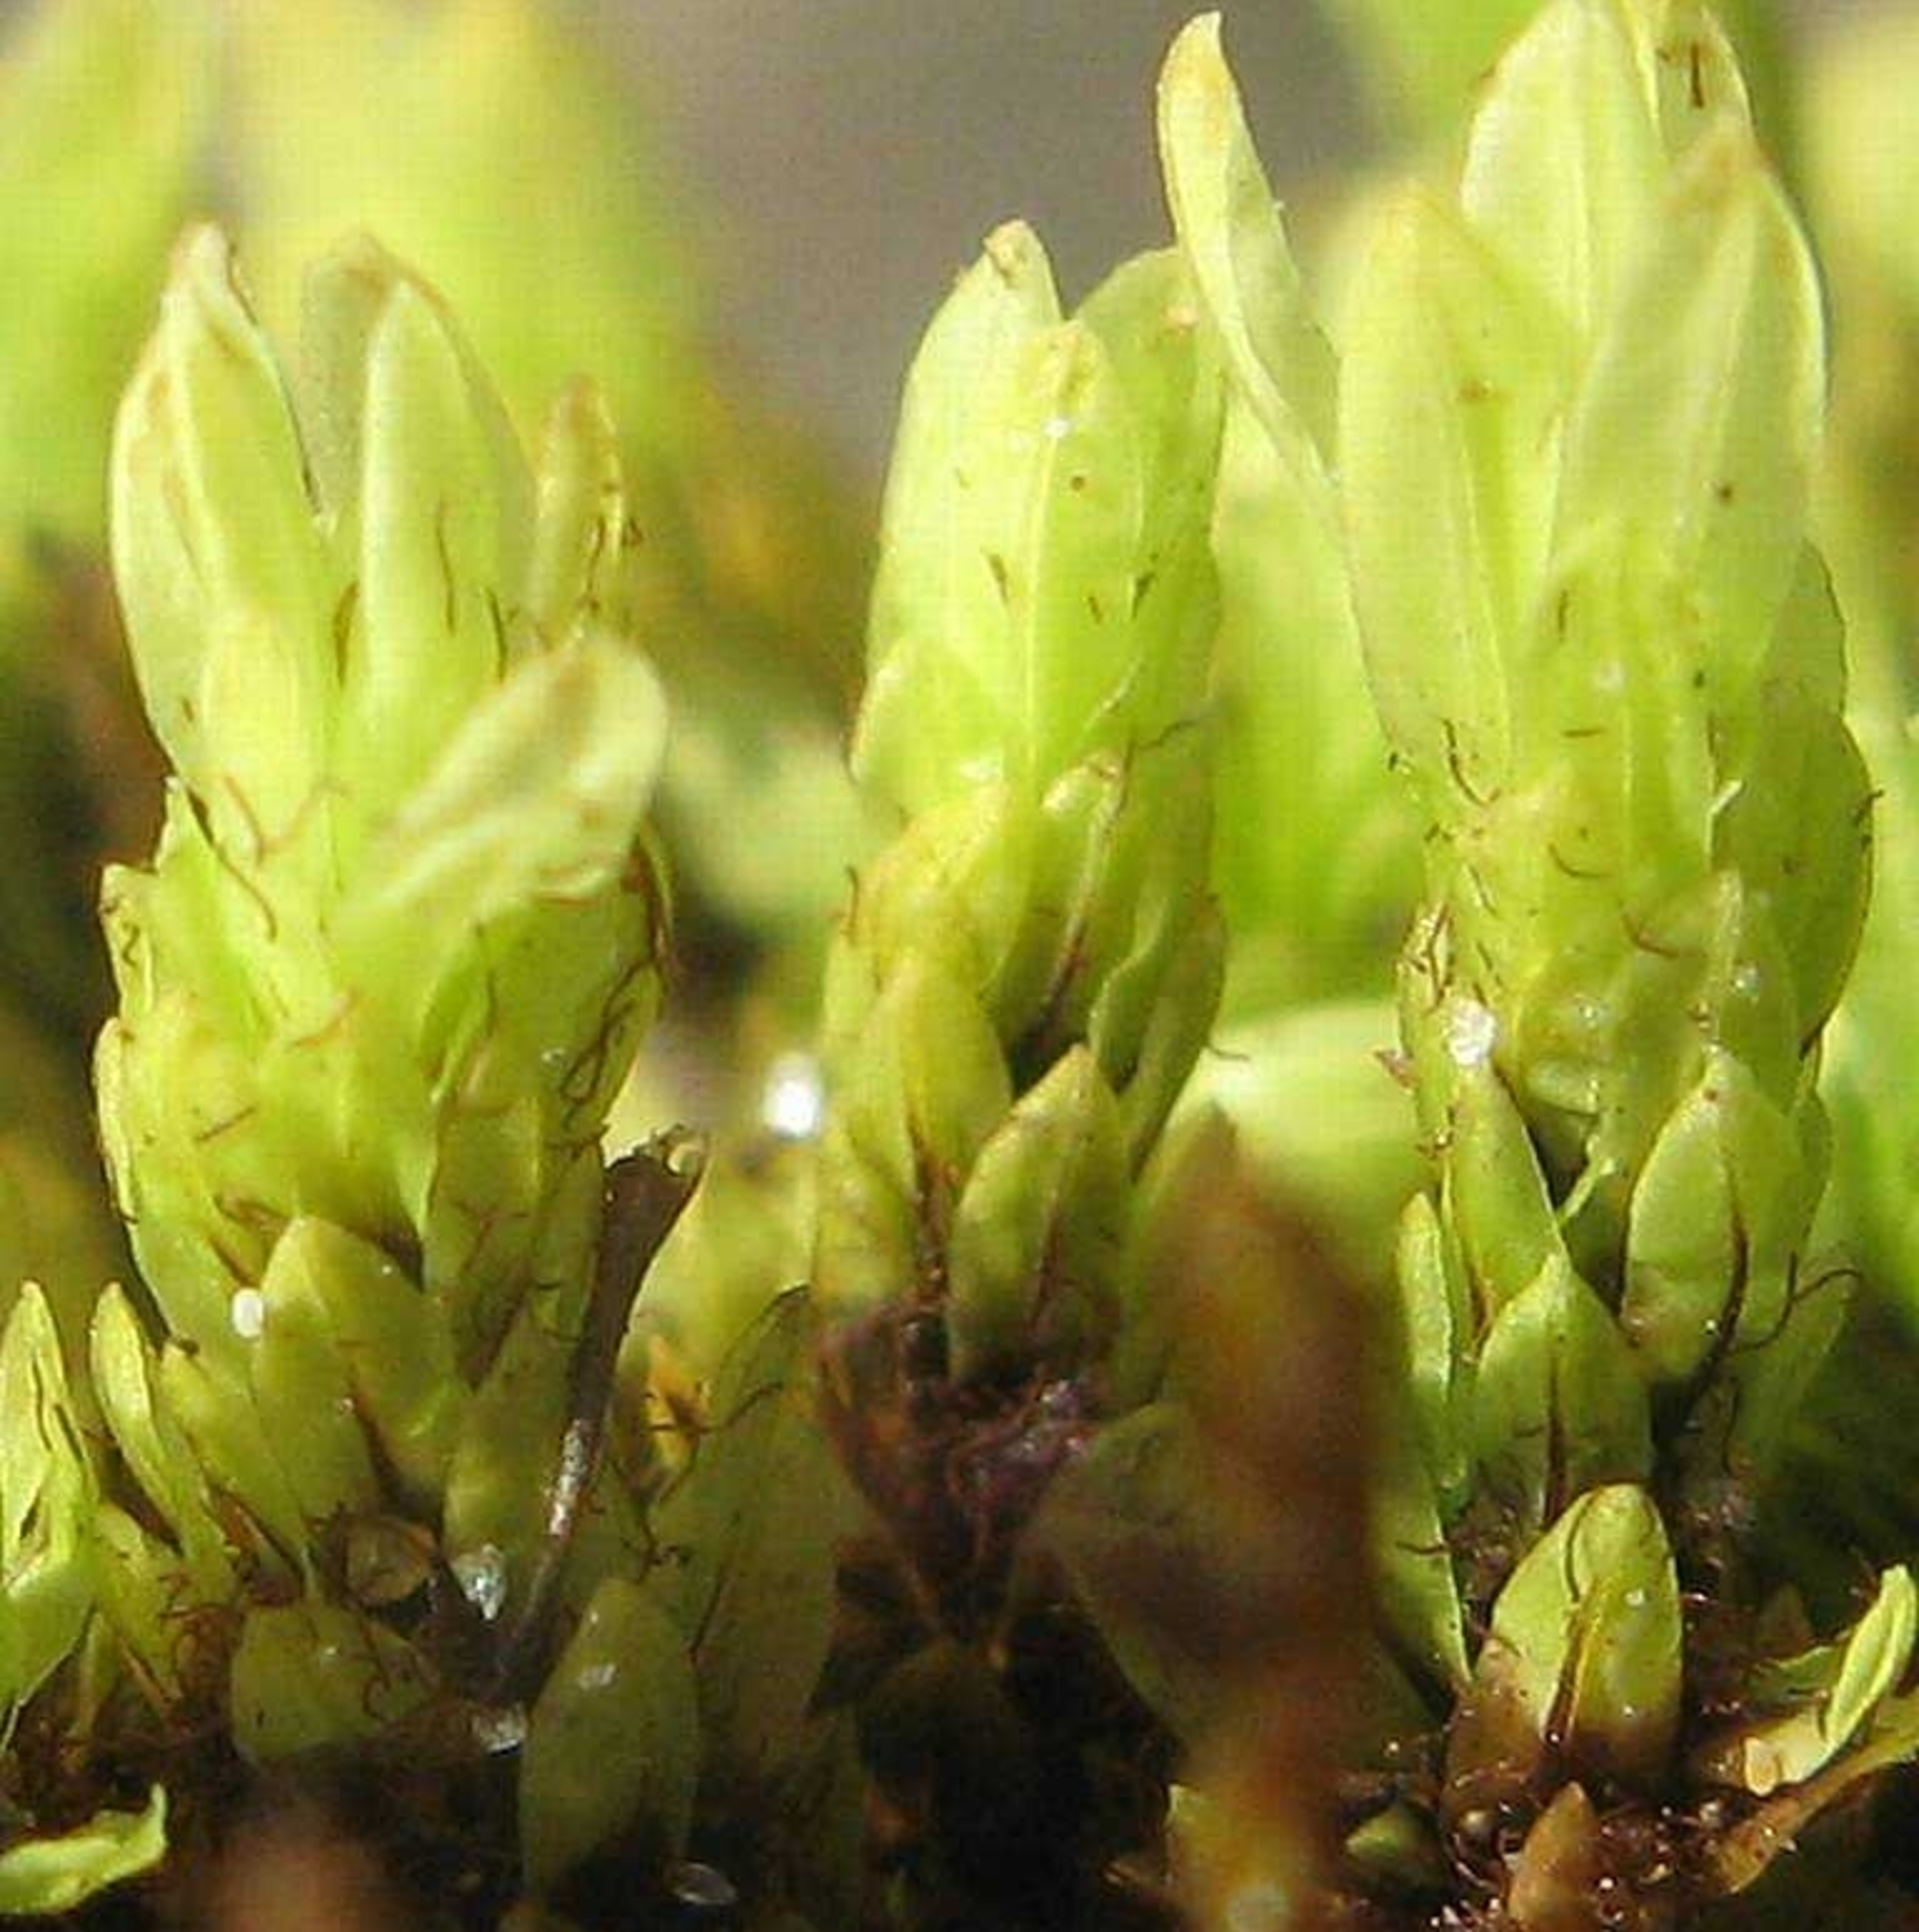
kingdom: Plantae
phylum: Bryophyta
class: Bryopsida
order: Encalyptales
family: Encalyptaceae
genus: Encalypta
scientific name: Encalypta streptocarpa
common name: Stor klokkehætte
